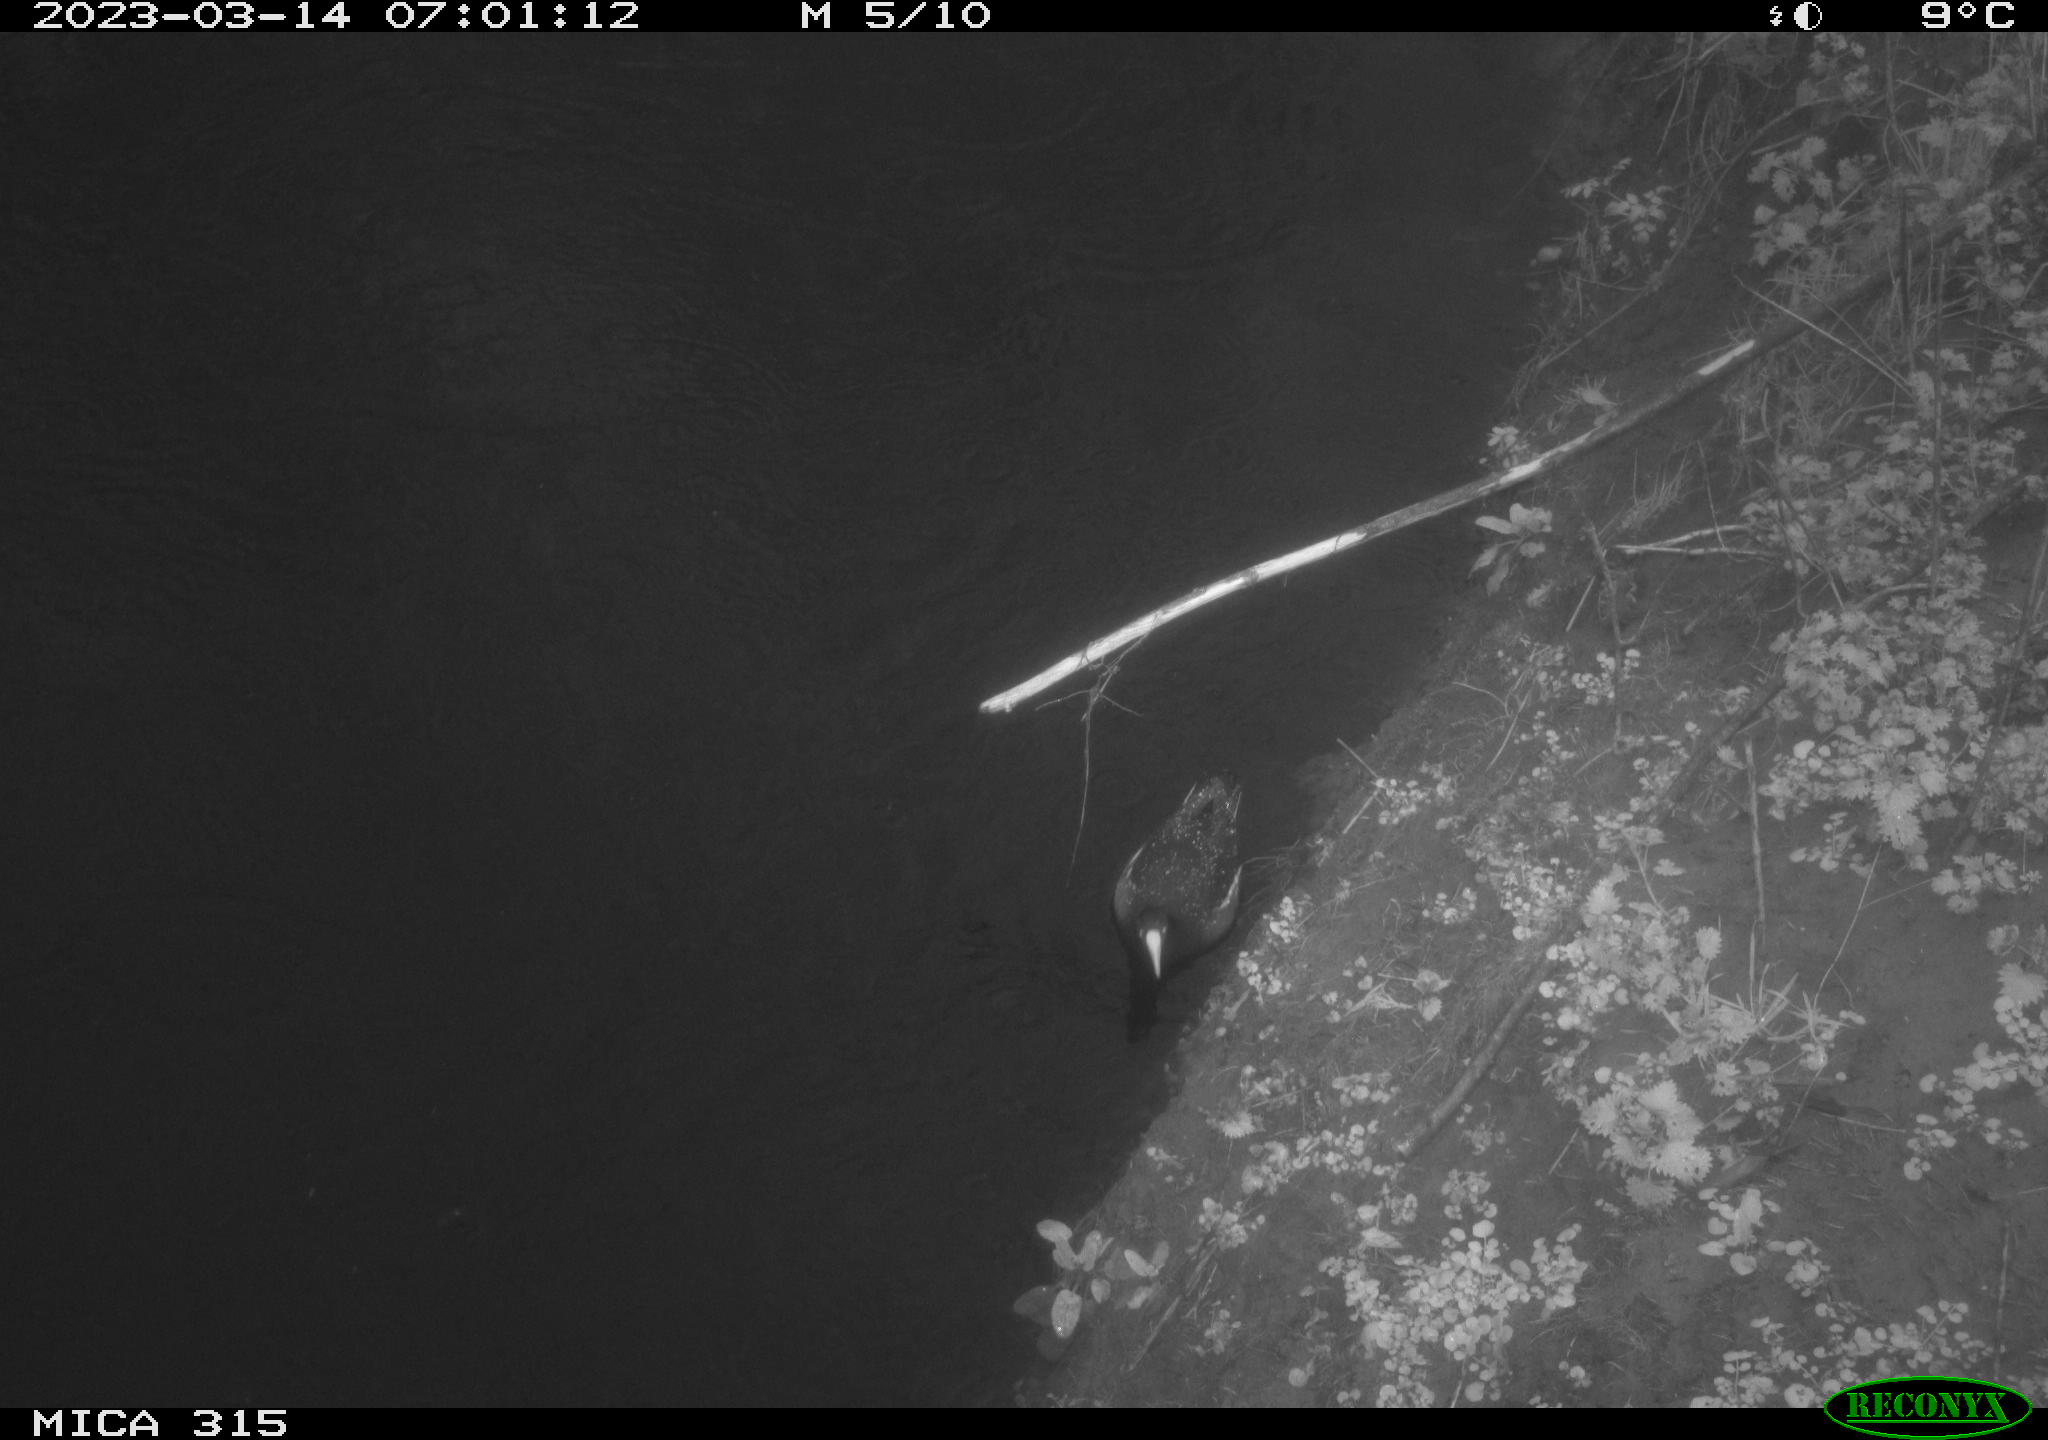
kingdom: Animalia
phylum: Chordata
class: Aves
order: Gruiformes
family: Rallidae
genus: Gallinula
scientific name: Gallinula chloropus
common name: Common moorhen
